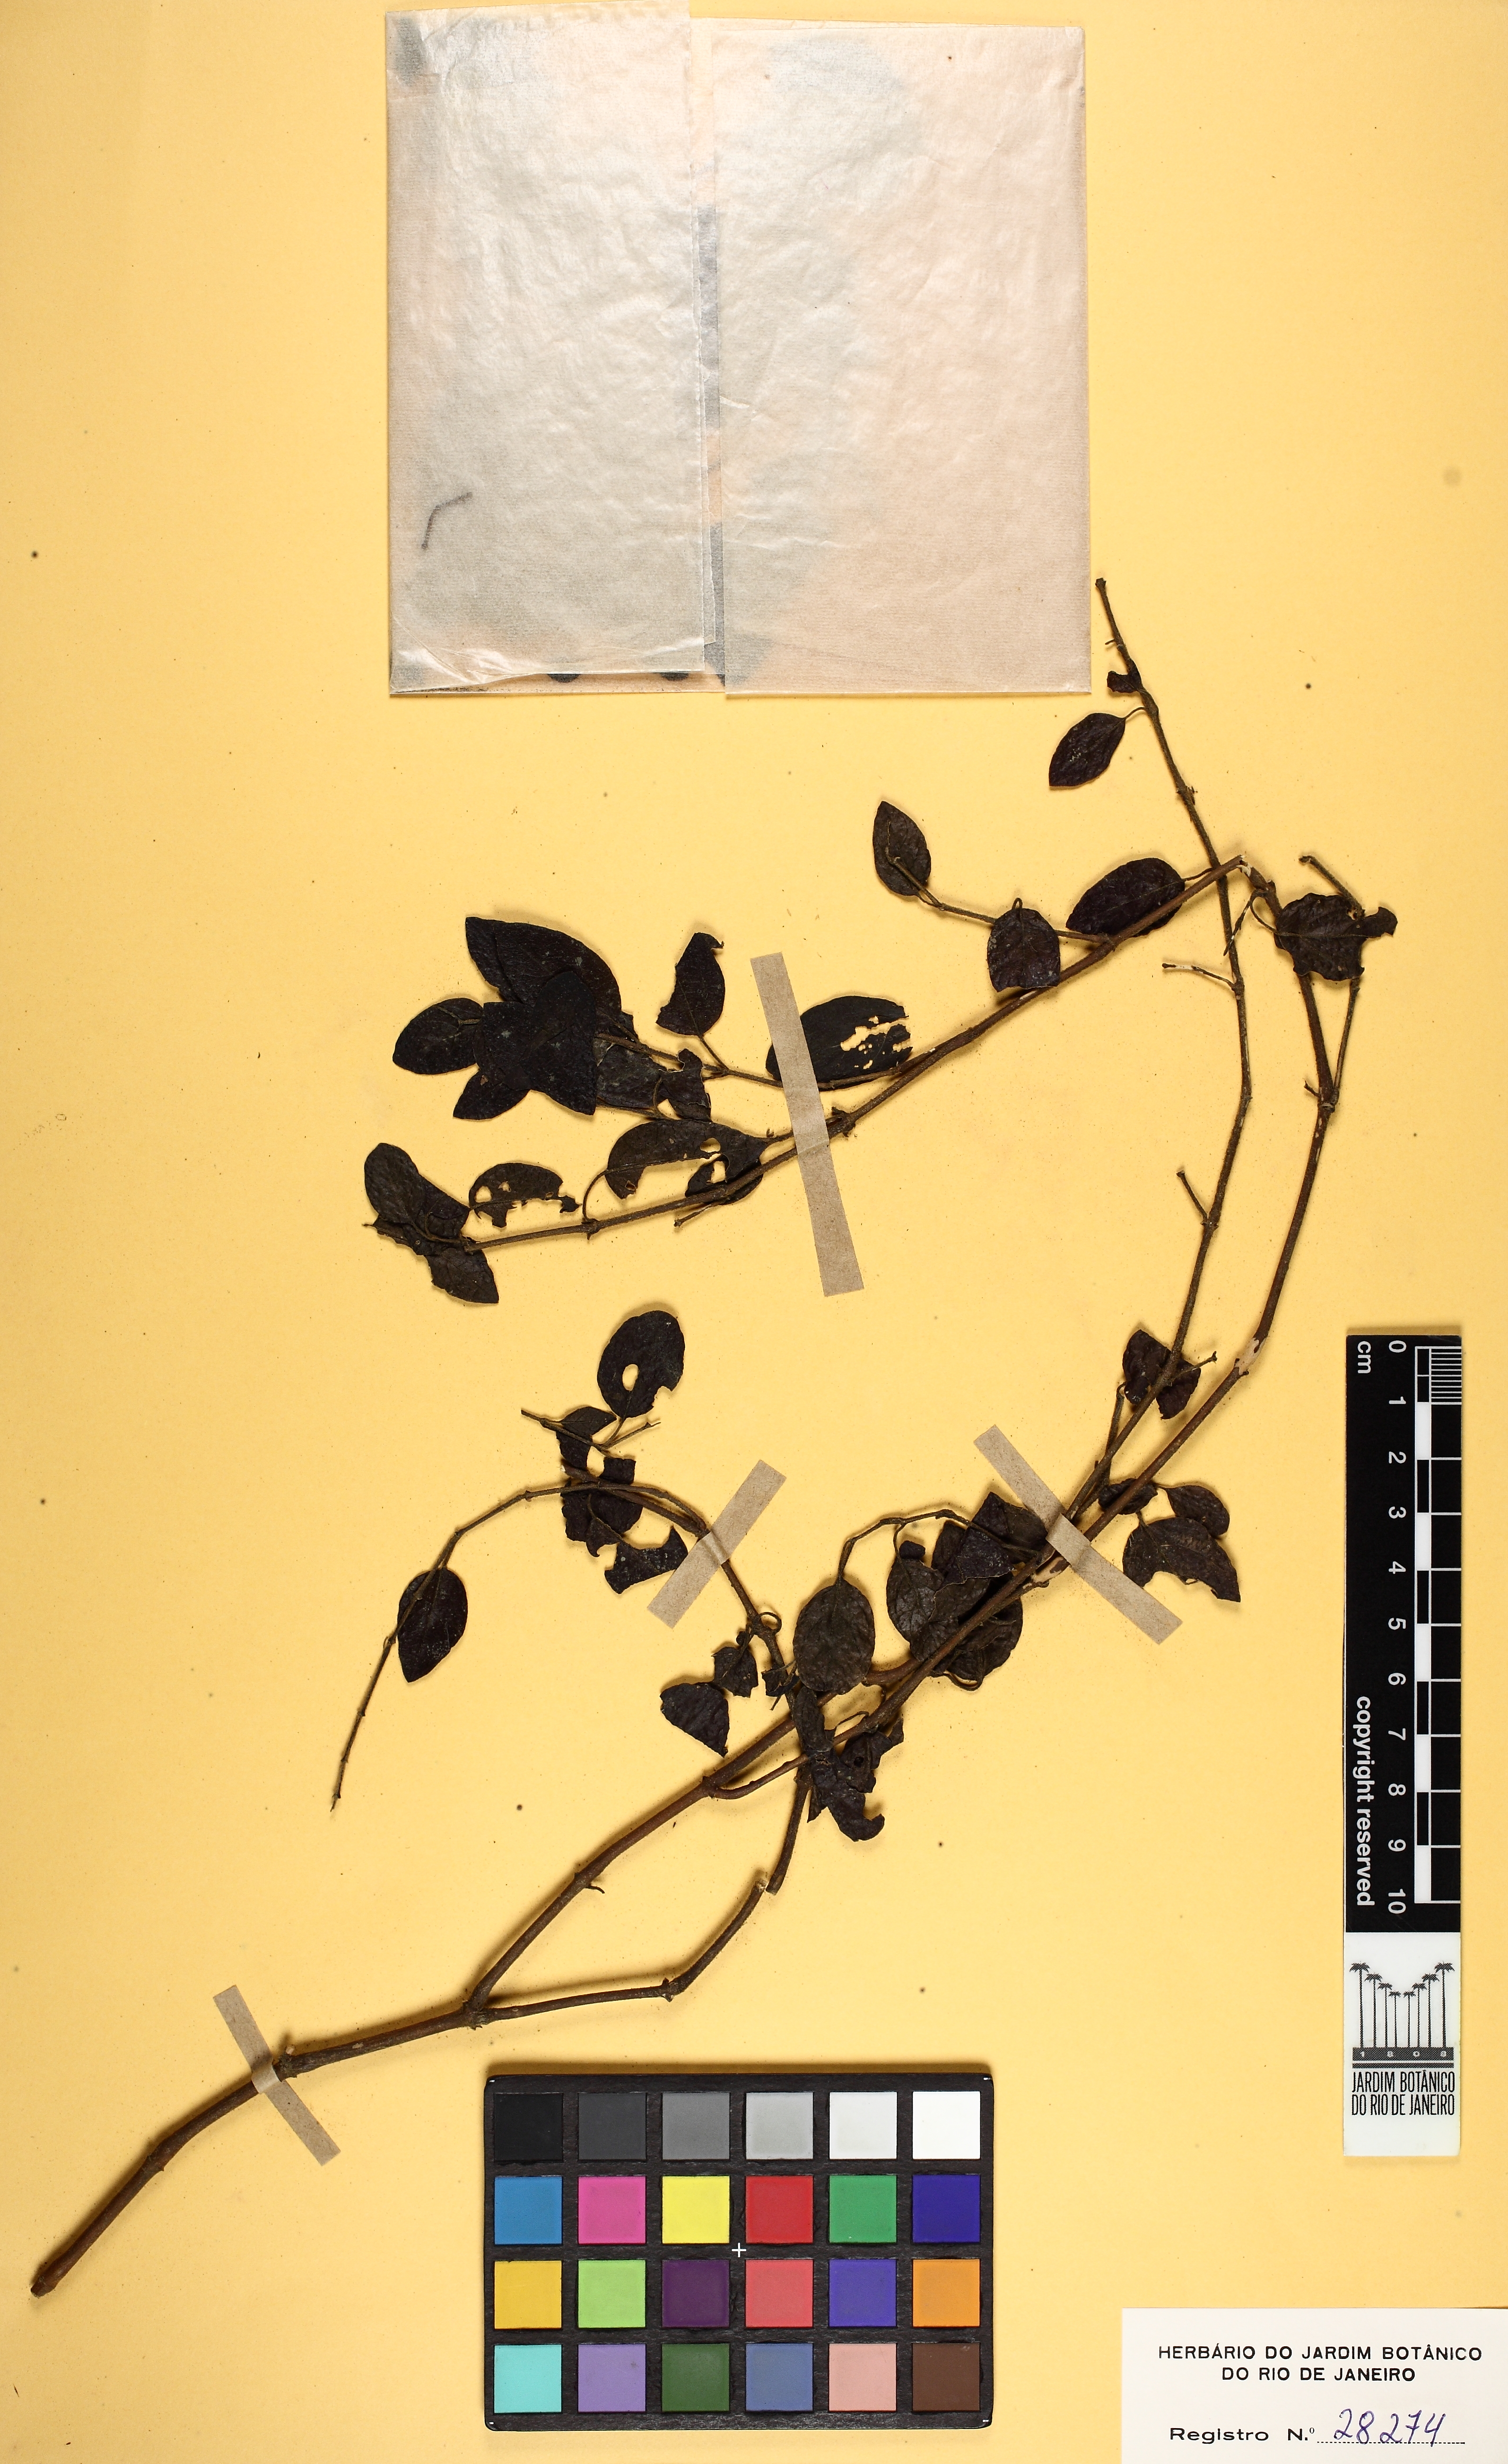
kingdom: Plantae
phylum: Tracheophyta
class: Magnoliopsida
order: Lamiales
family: Acanthaceae
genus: Justicia
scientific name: Justicia monticola
